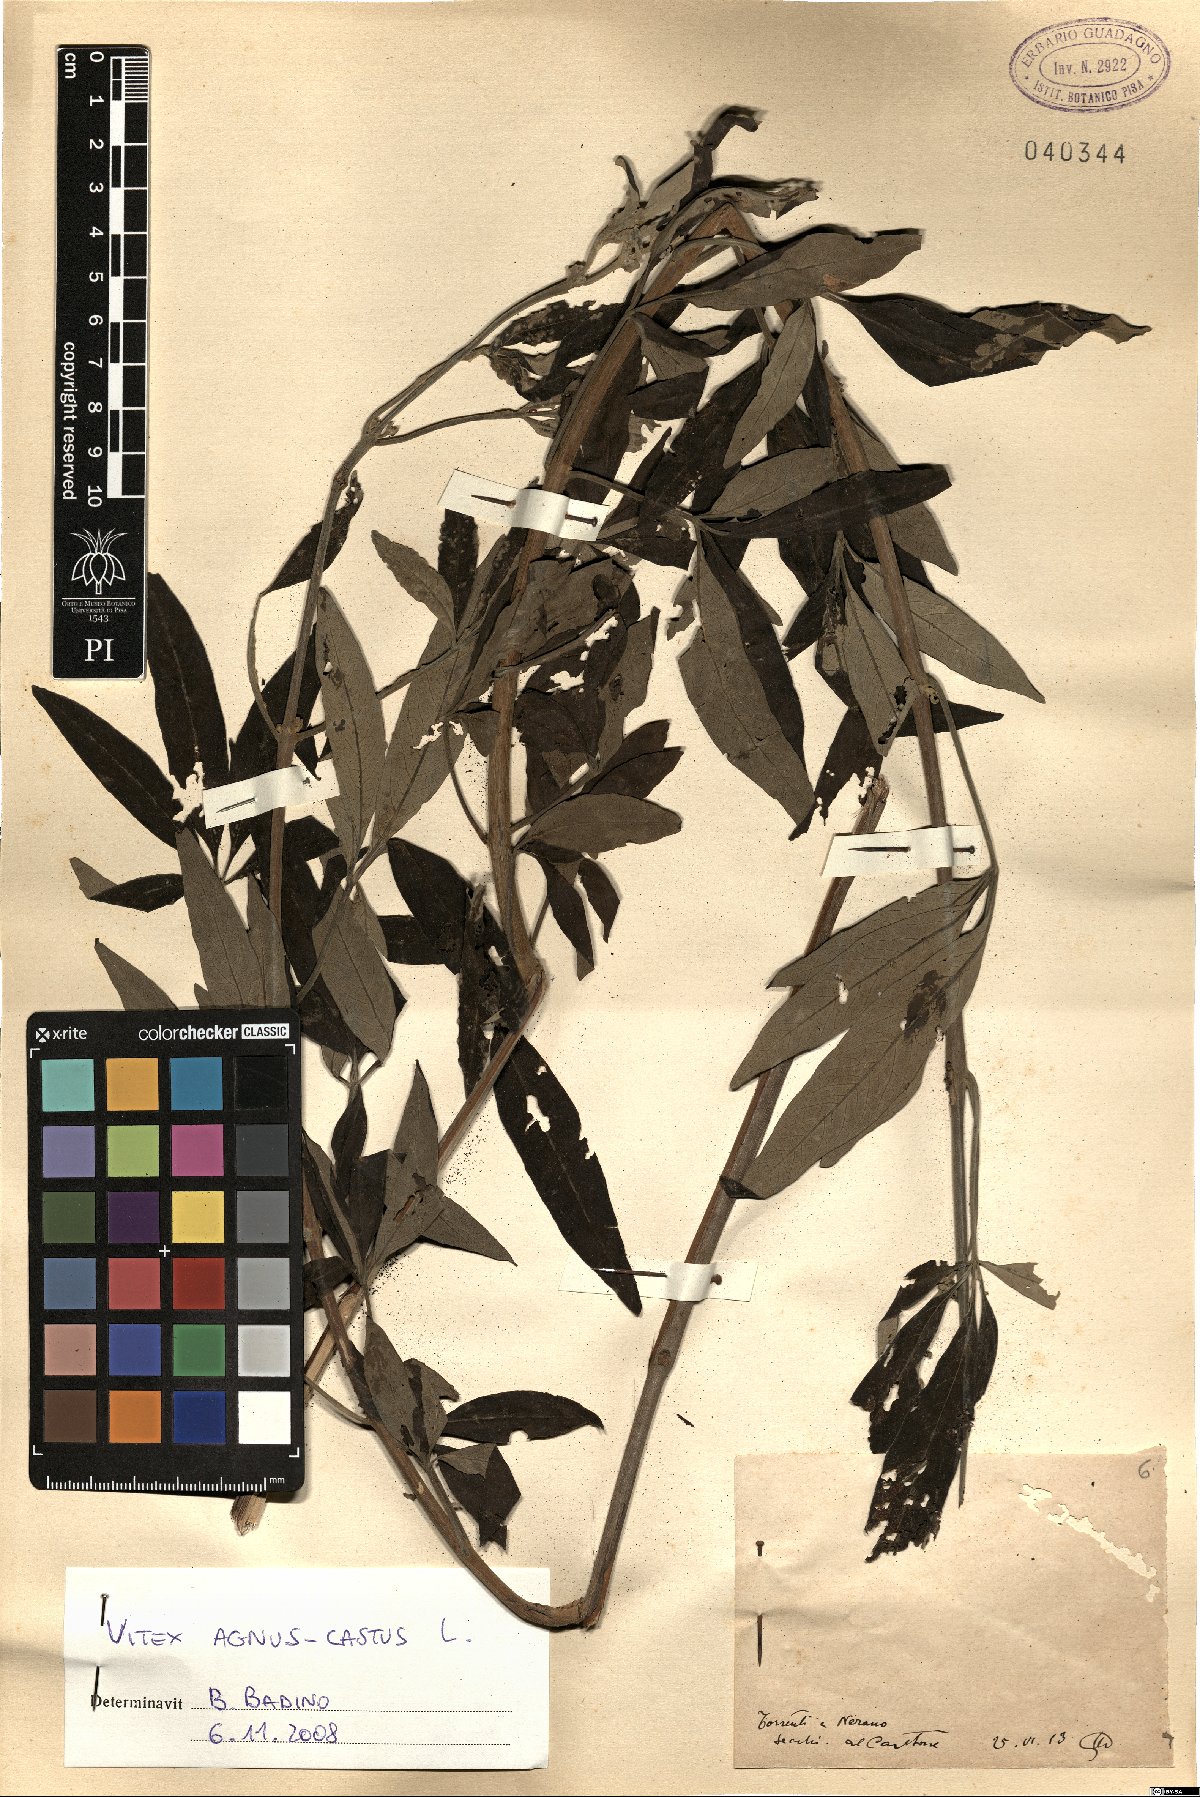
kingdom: Plantae
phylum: Tracheophyta
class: Magnoliopsida
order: Lamiales
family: Lamiaceae
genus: Vitex
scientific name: Vitex agnus-castus
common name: Chasteberry
